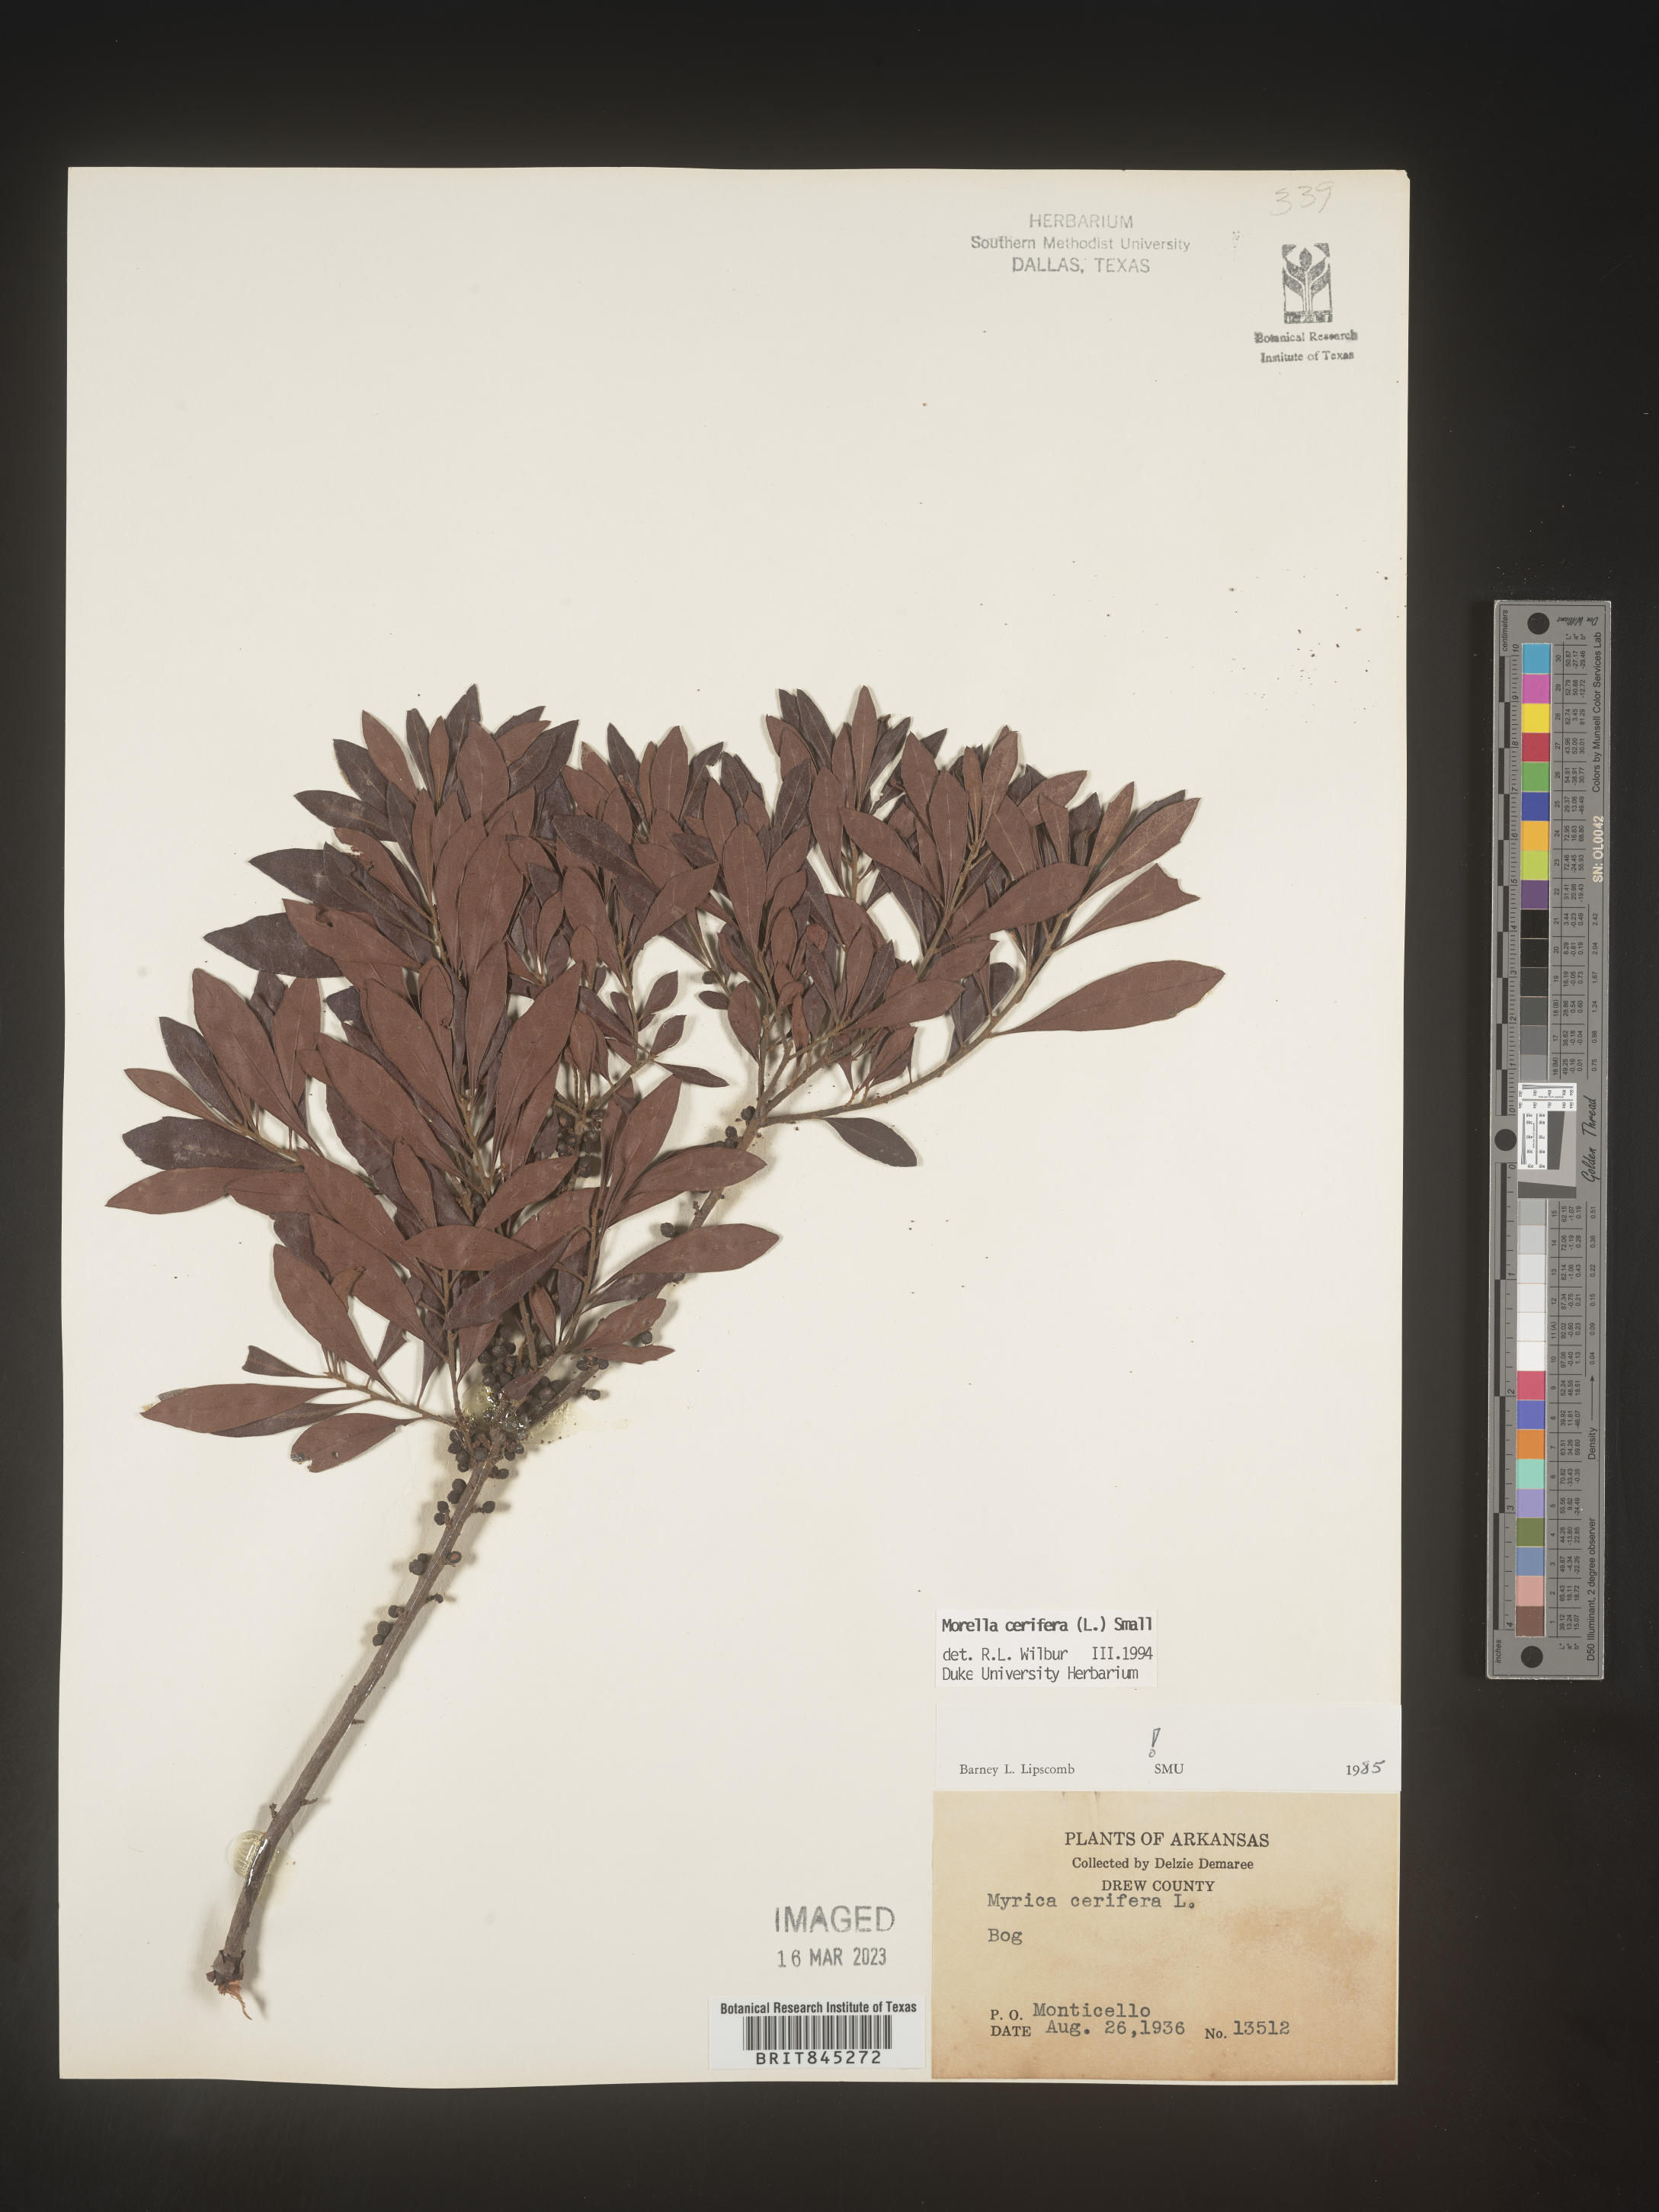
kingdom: Plantae
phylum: Tracheophyta
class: Magnoliopsida
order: Fagales
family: Myricaceae
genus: Morella
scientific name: Morella cerifera
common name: Wax myrtle
